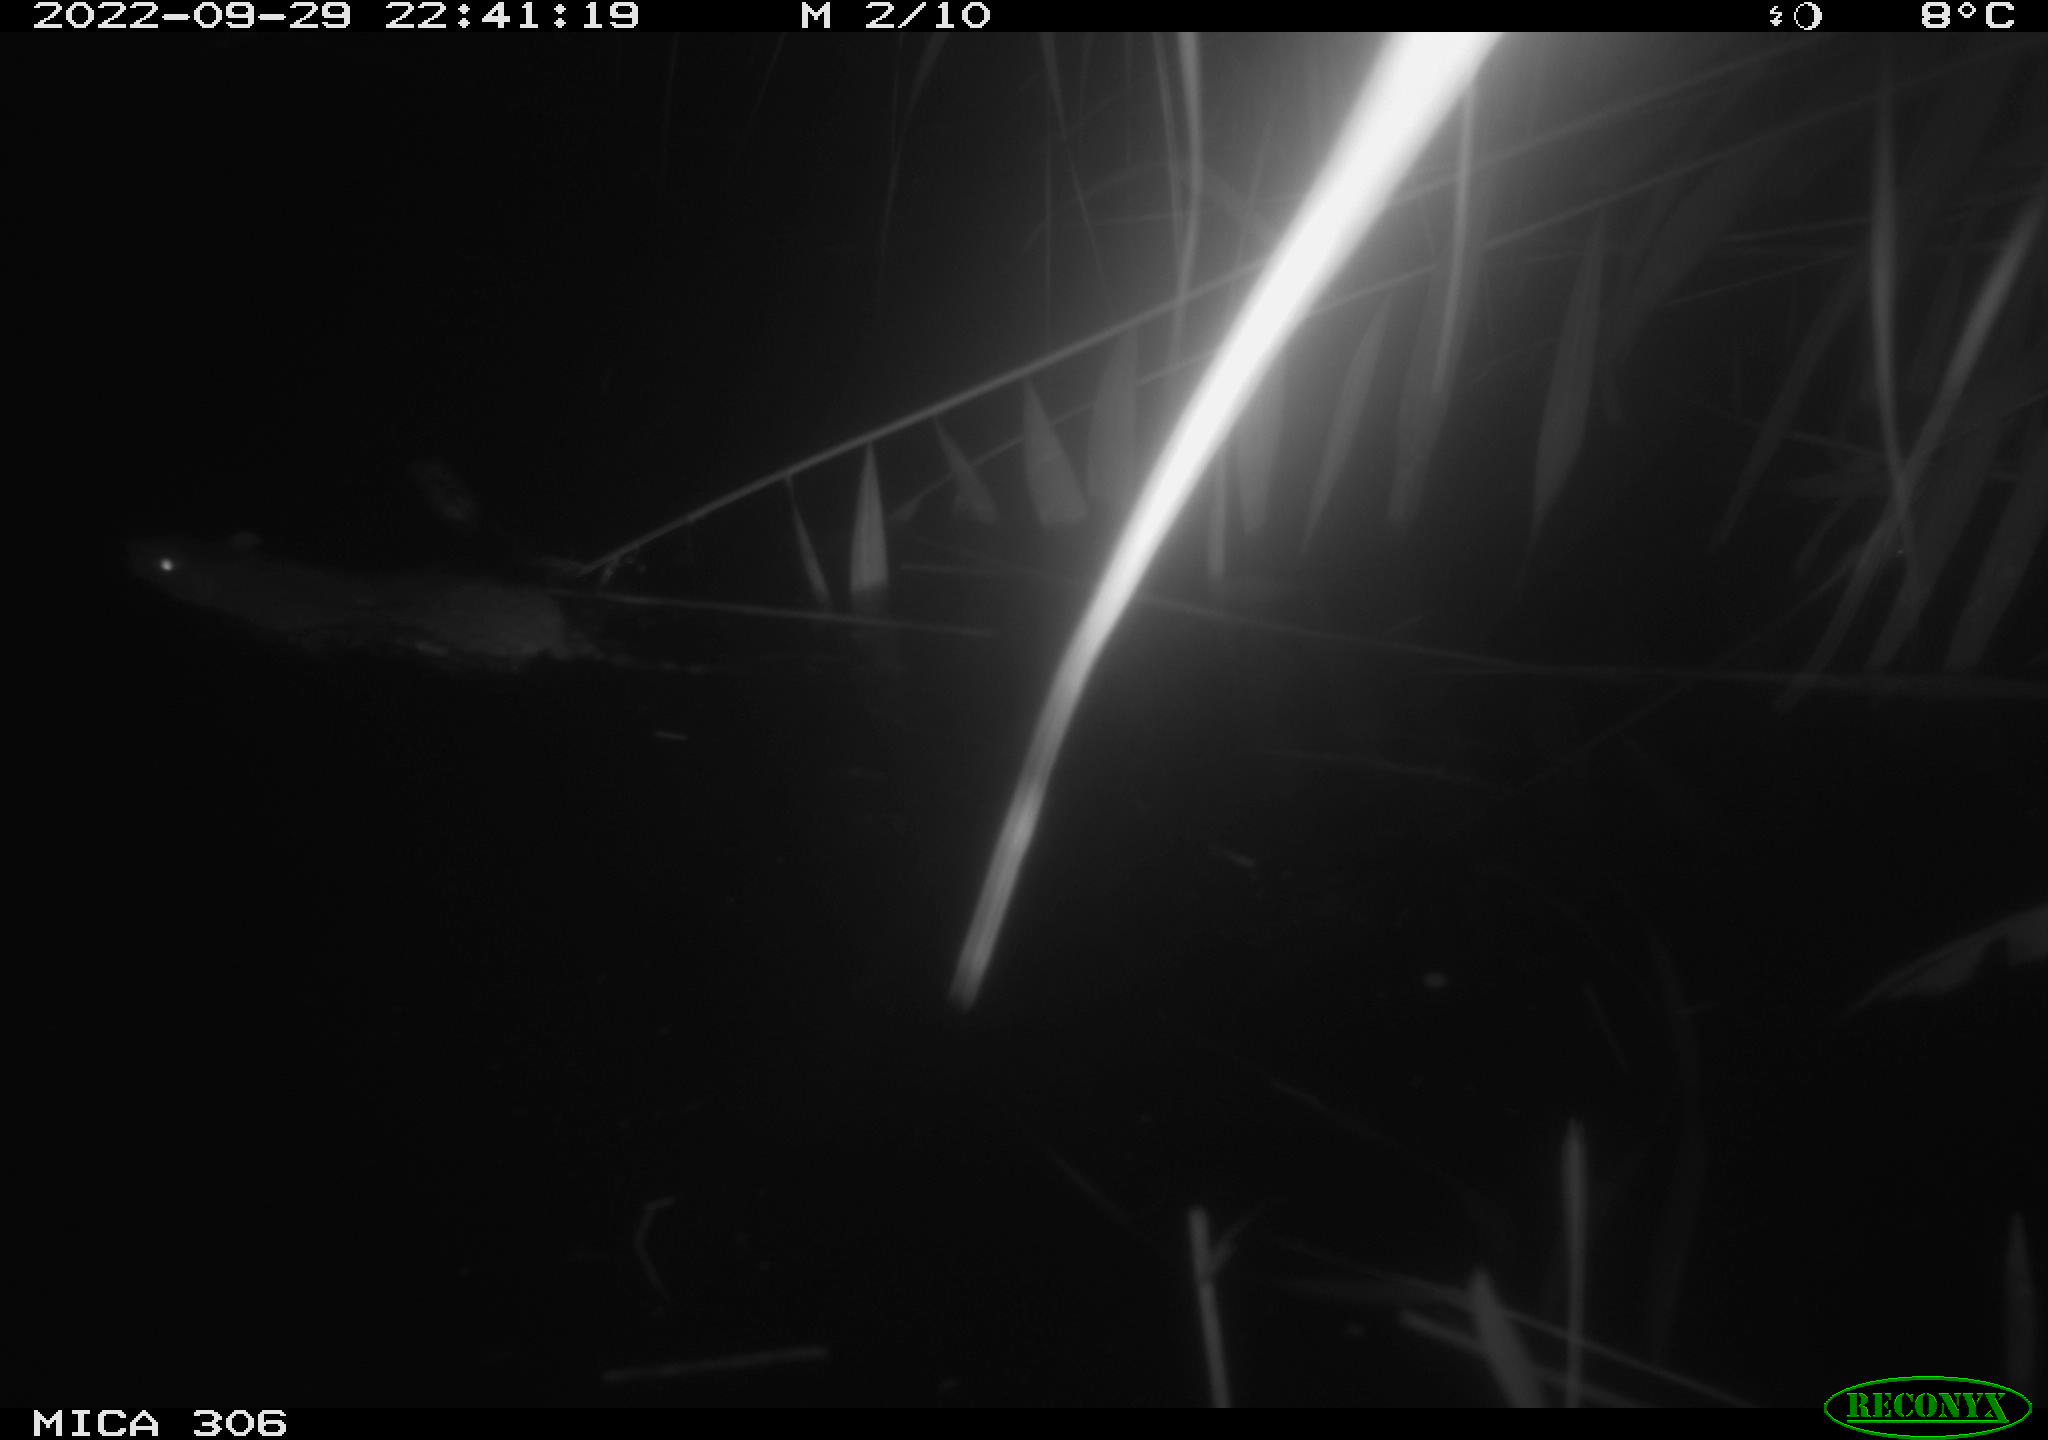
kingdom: Animalia
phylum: Chordata
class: Mammalia
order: Rodentia
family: Muridae
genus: Rattus
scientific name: Rattus norvegicus
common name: Brown rat
